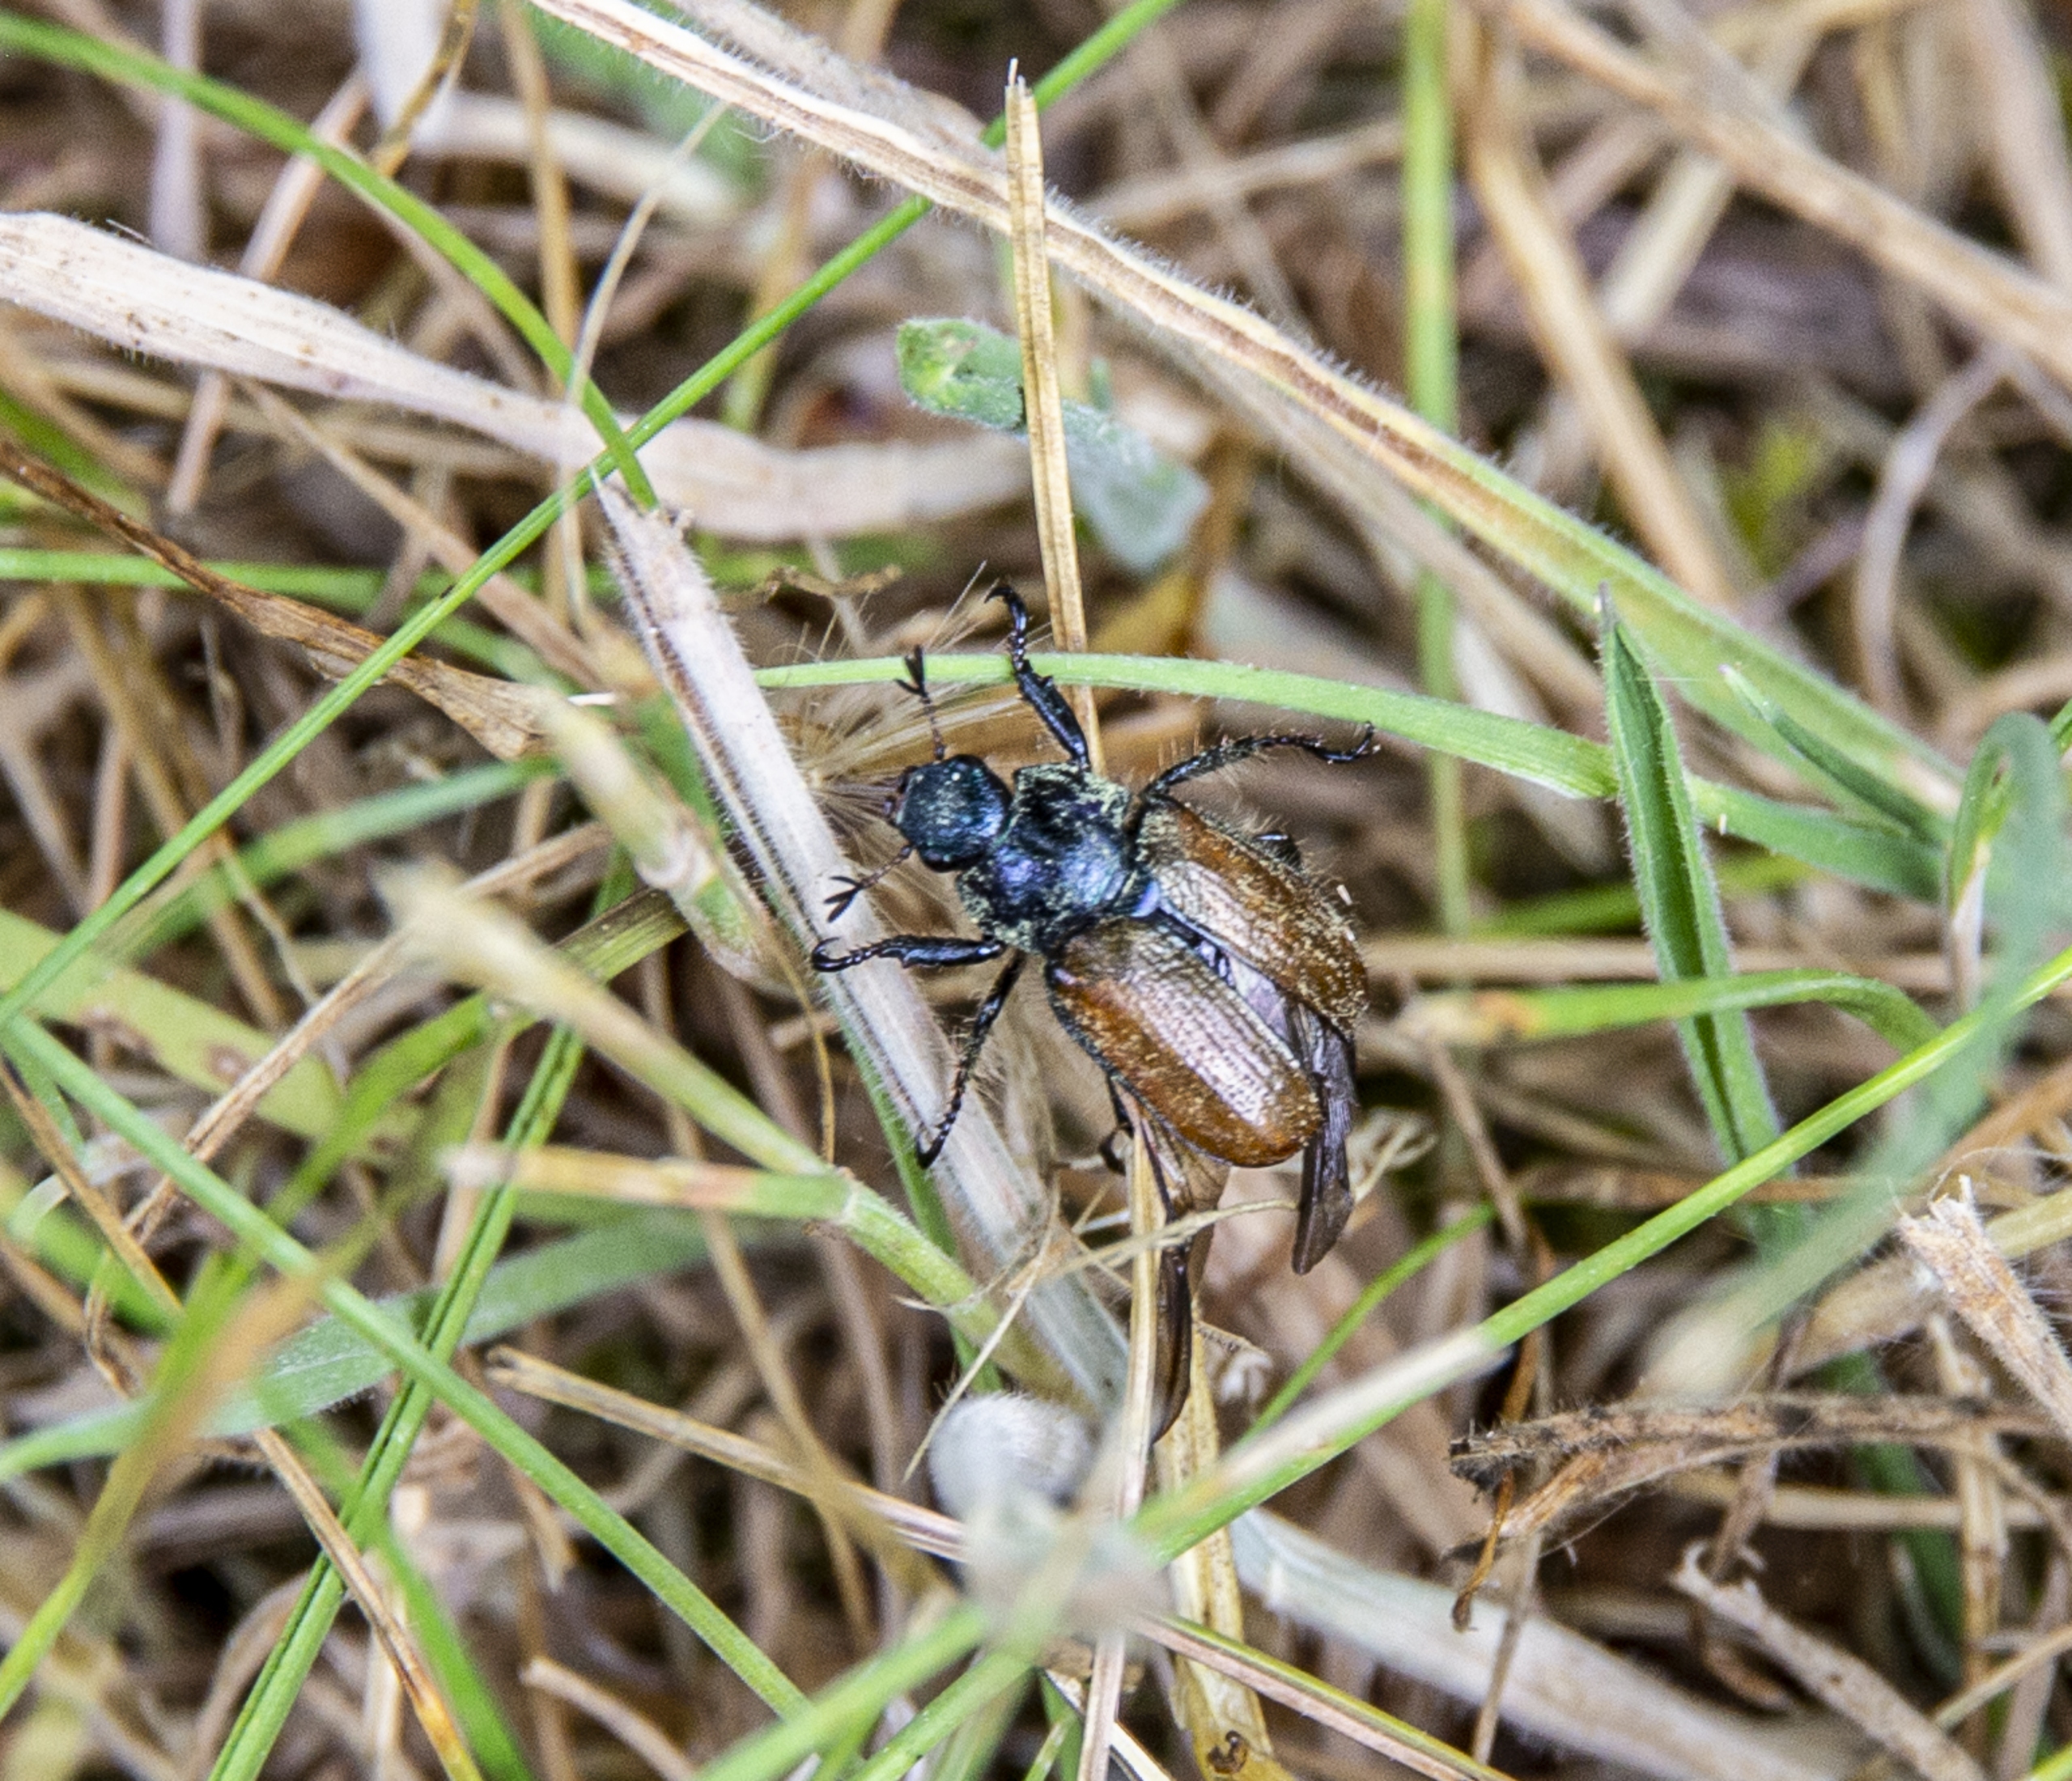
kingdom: Animalia
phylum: Arthropoda
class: Insecta
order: Coleoptera
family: Scarabaeidae
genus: Phyllopertha
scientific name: Phyllopertha horticola
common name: Gåsebille
